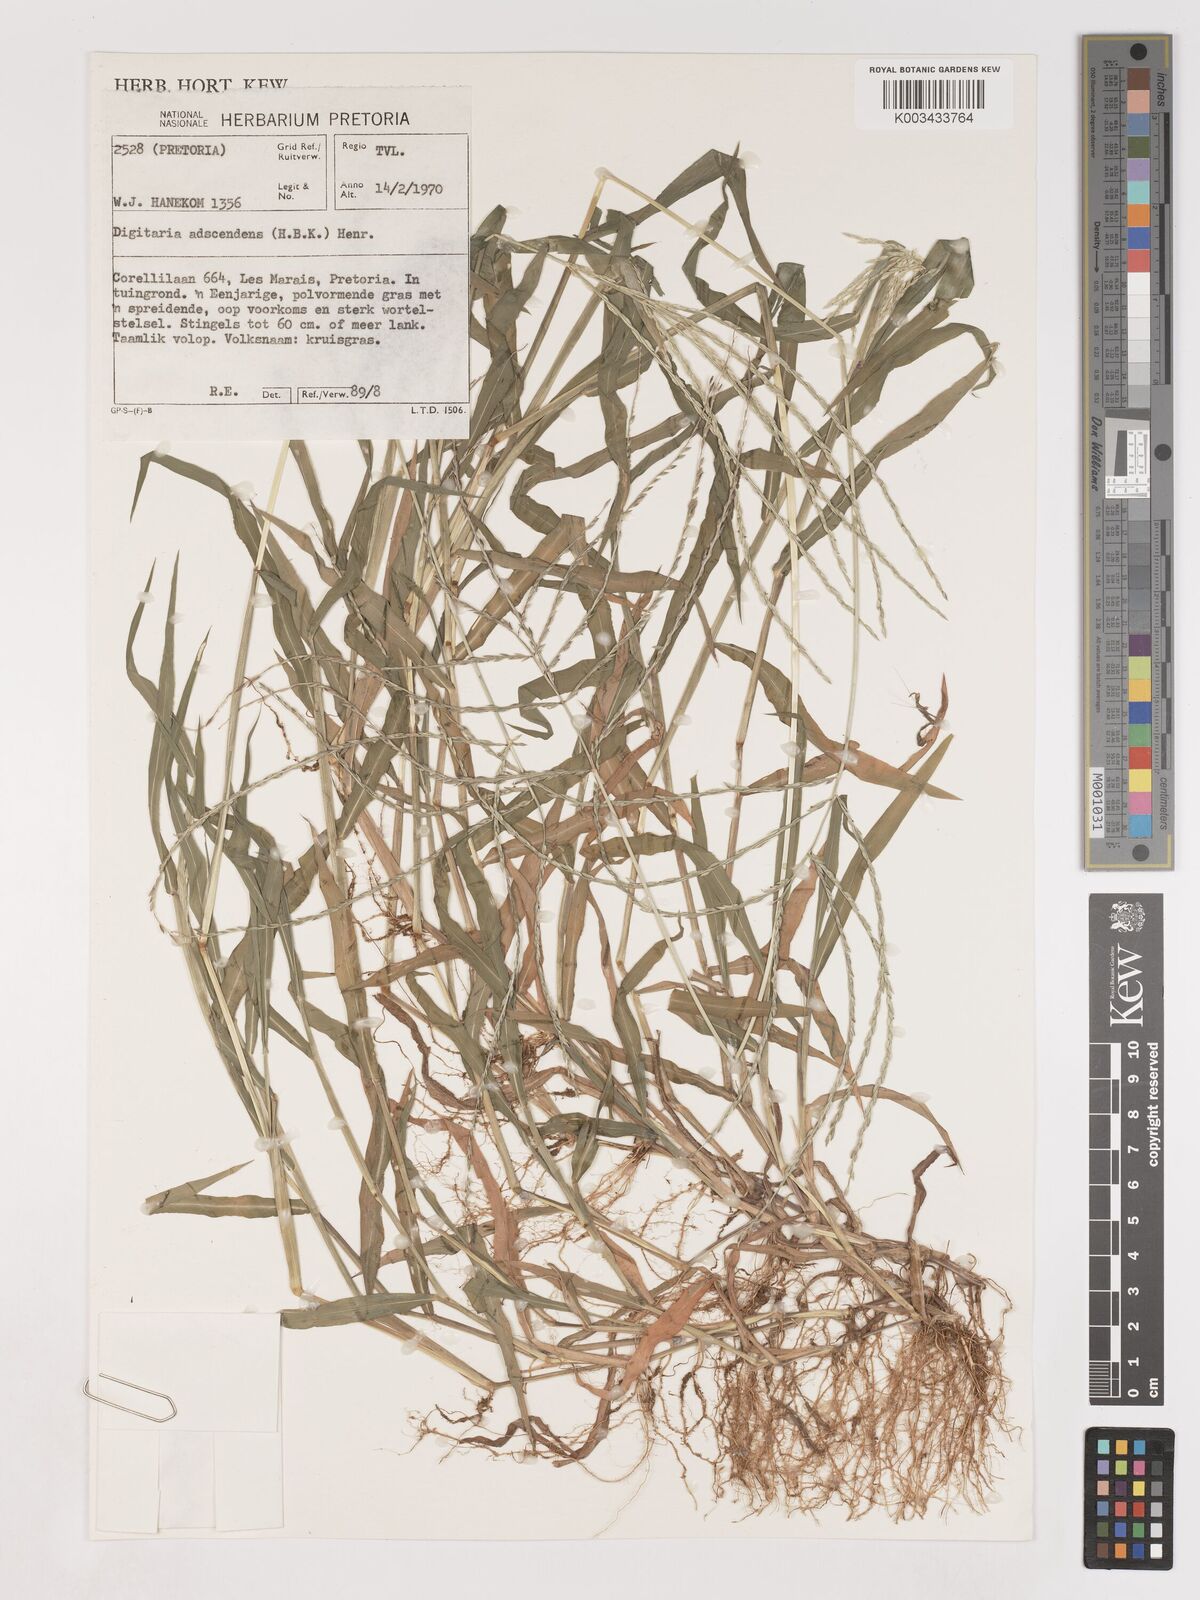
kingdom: Plantae
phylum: Tracheophyta
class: Liliopsida
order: Poales
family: Poaceae
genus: Digitaria
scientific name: Digitaria ciliaris
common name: Tropical finger-grass
